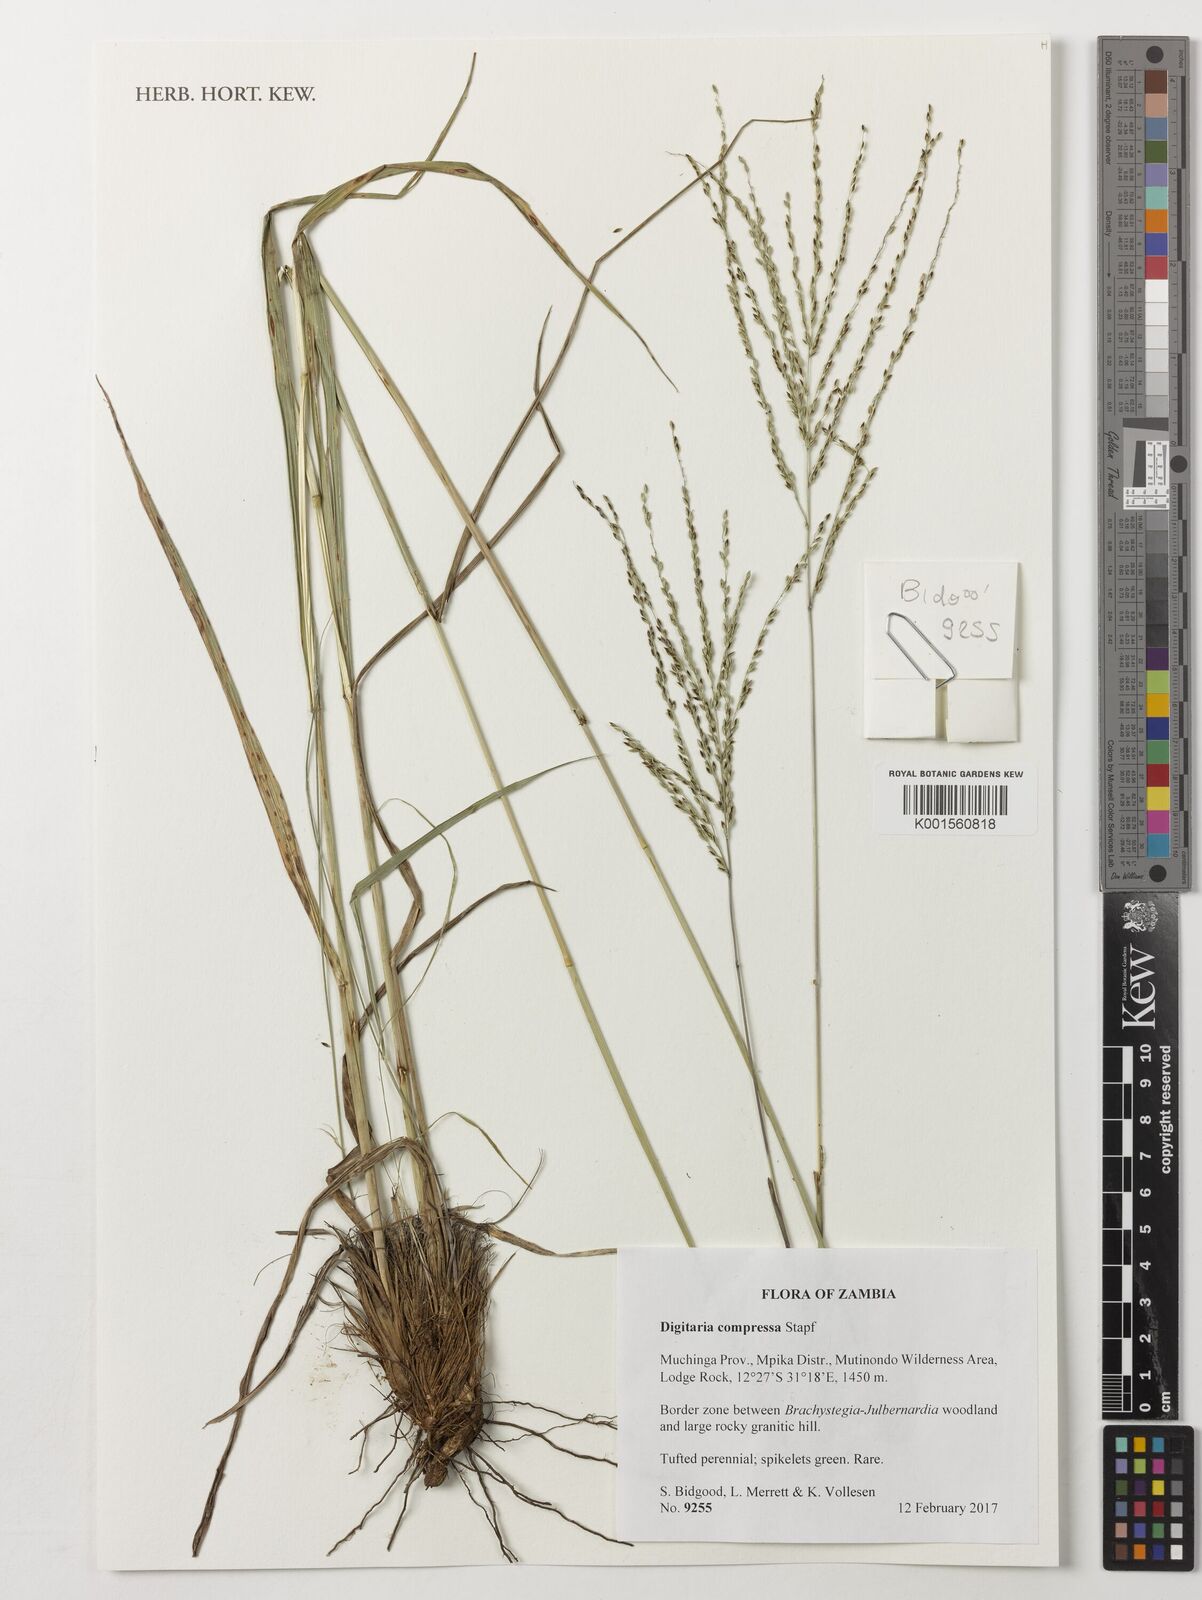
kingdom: Plantae
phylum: Tracheophyta
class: Liliopsida
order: Poales
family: Poaceae
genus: Digitaria
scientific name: Digitaria compressa
